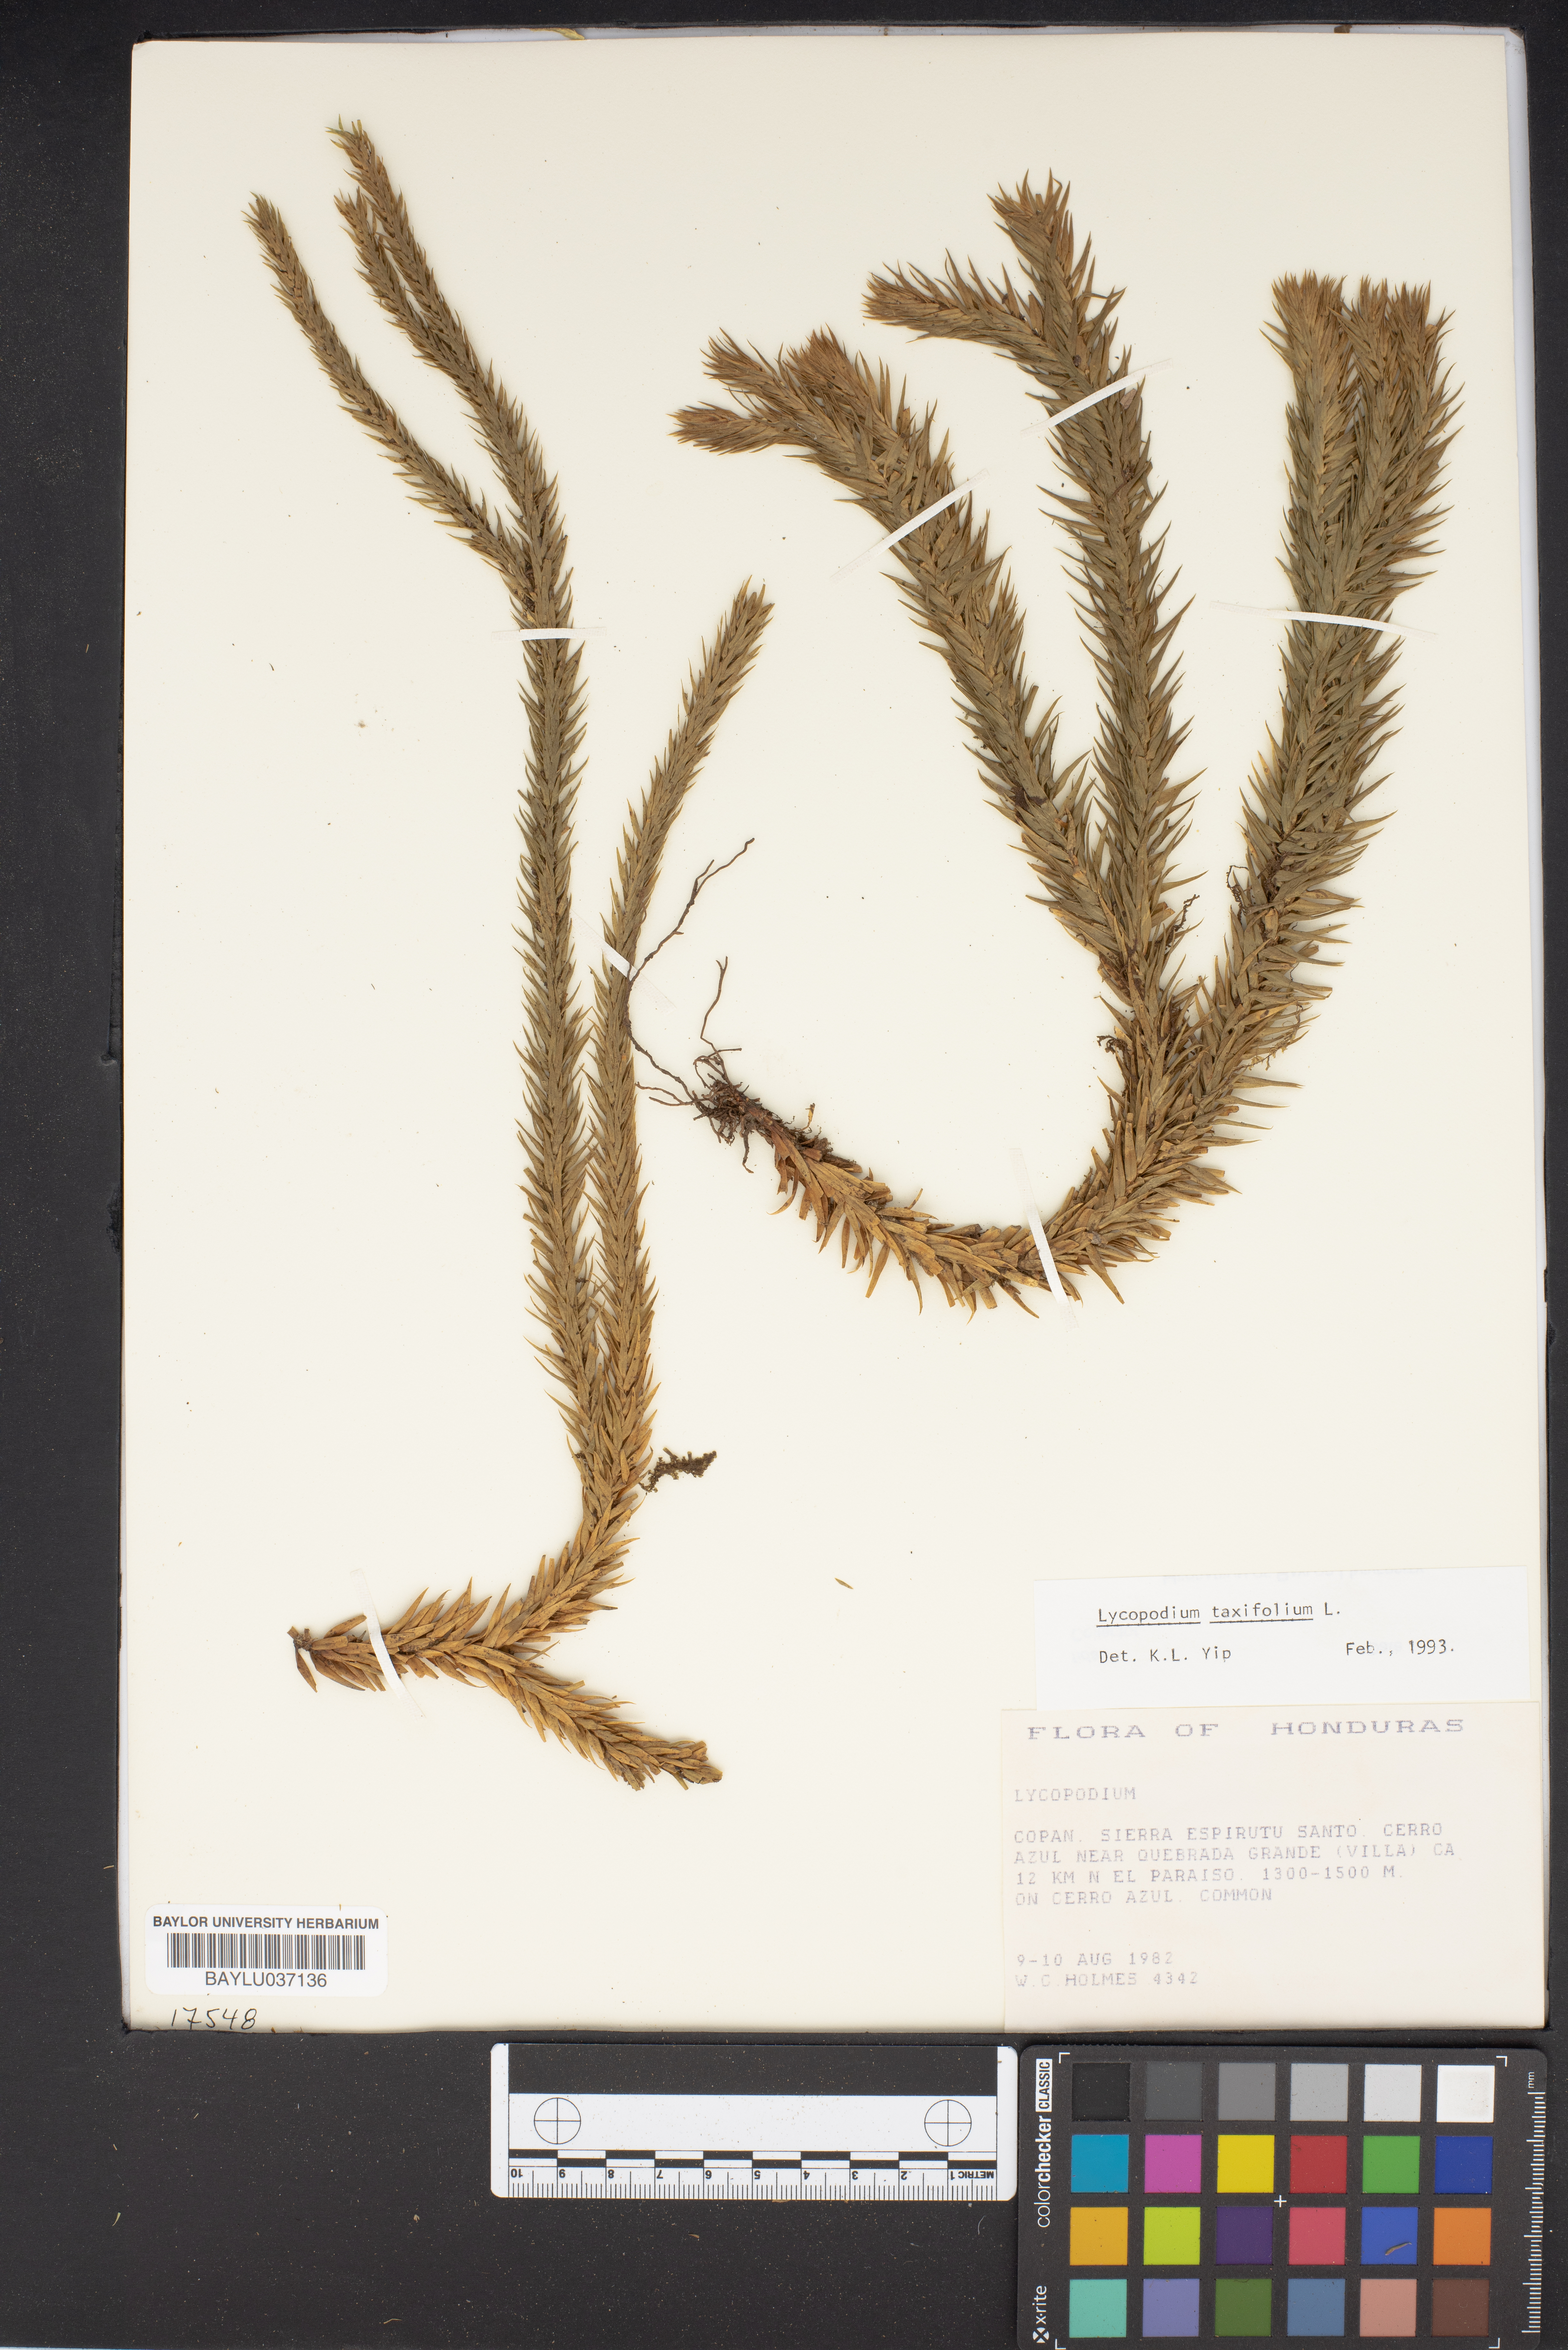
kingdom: Plantae
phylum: Tracheophyta
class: Lycopodiopsida
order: Lycopodiales
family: Lycopodiaceae
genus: Lycopodium
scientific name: Lycopodium
